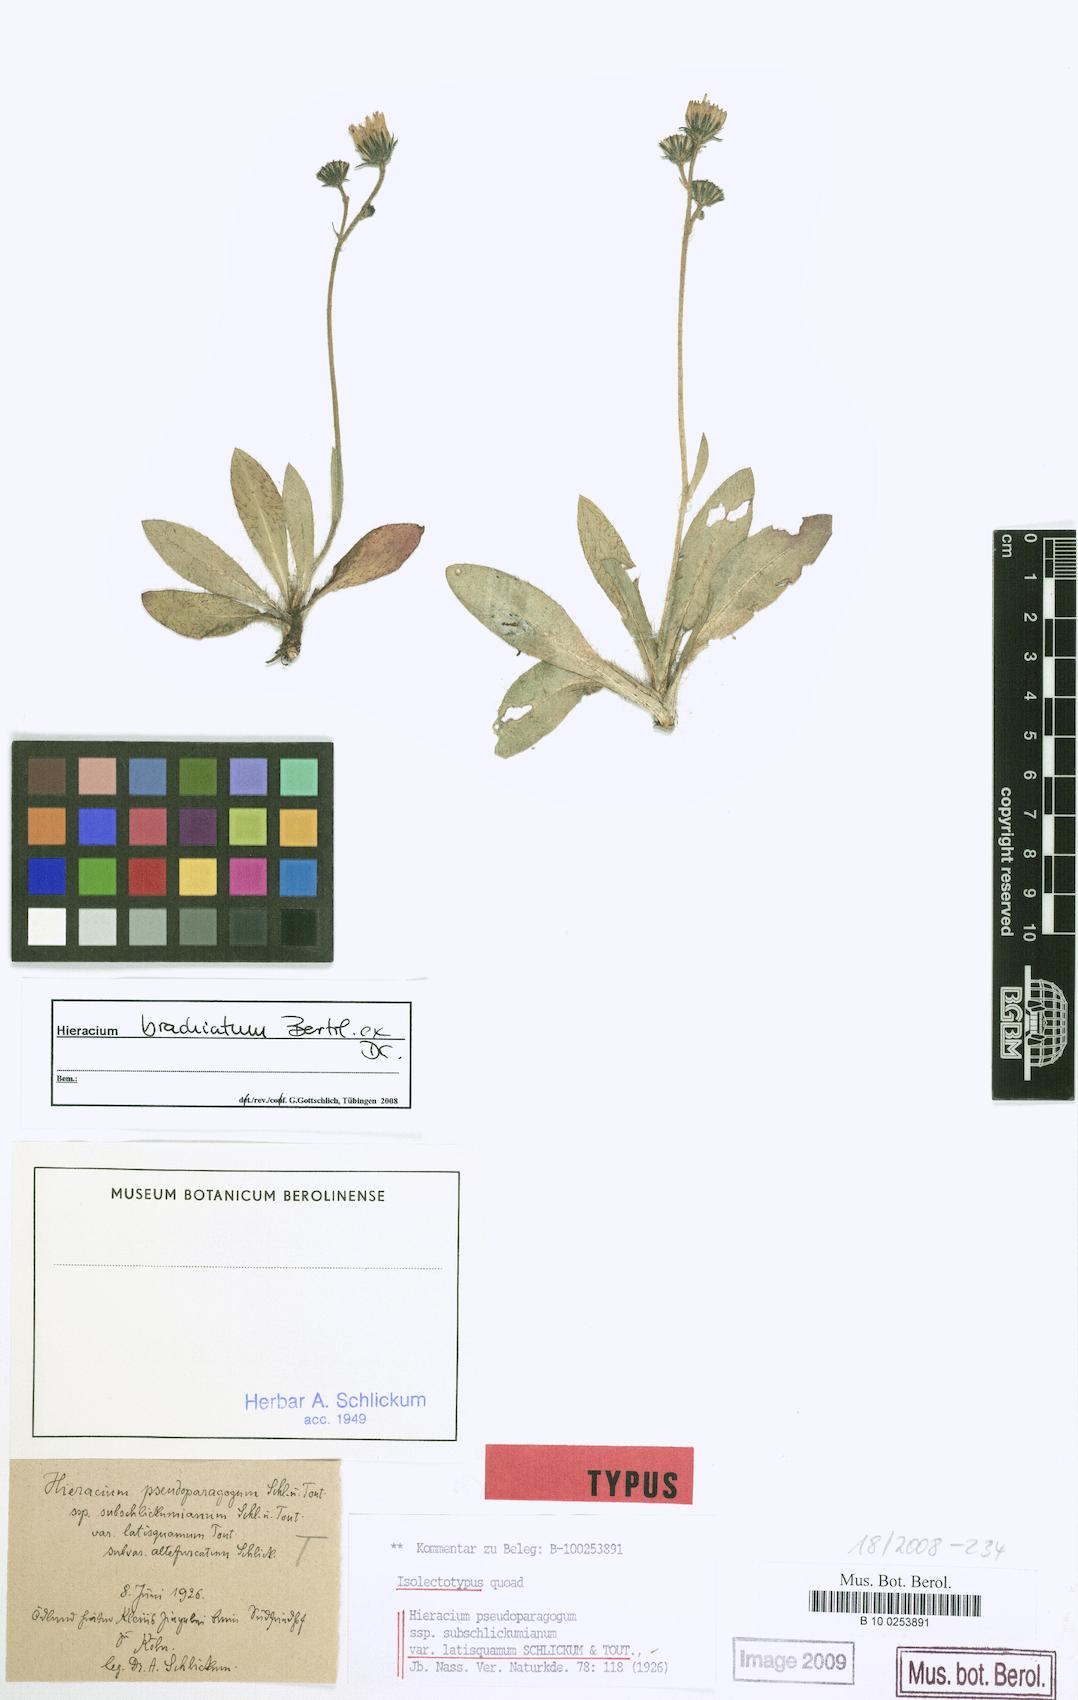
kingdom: Plantae
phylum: Tracheophyta
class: Magnoliopsida
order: Asterales
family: Asteraceae
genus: Pilosella
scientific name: Pilosella acutifolia
